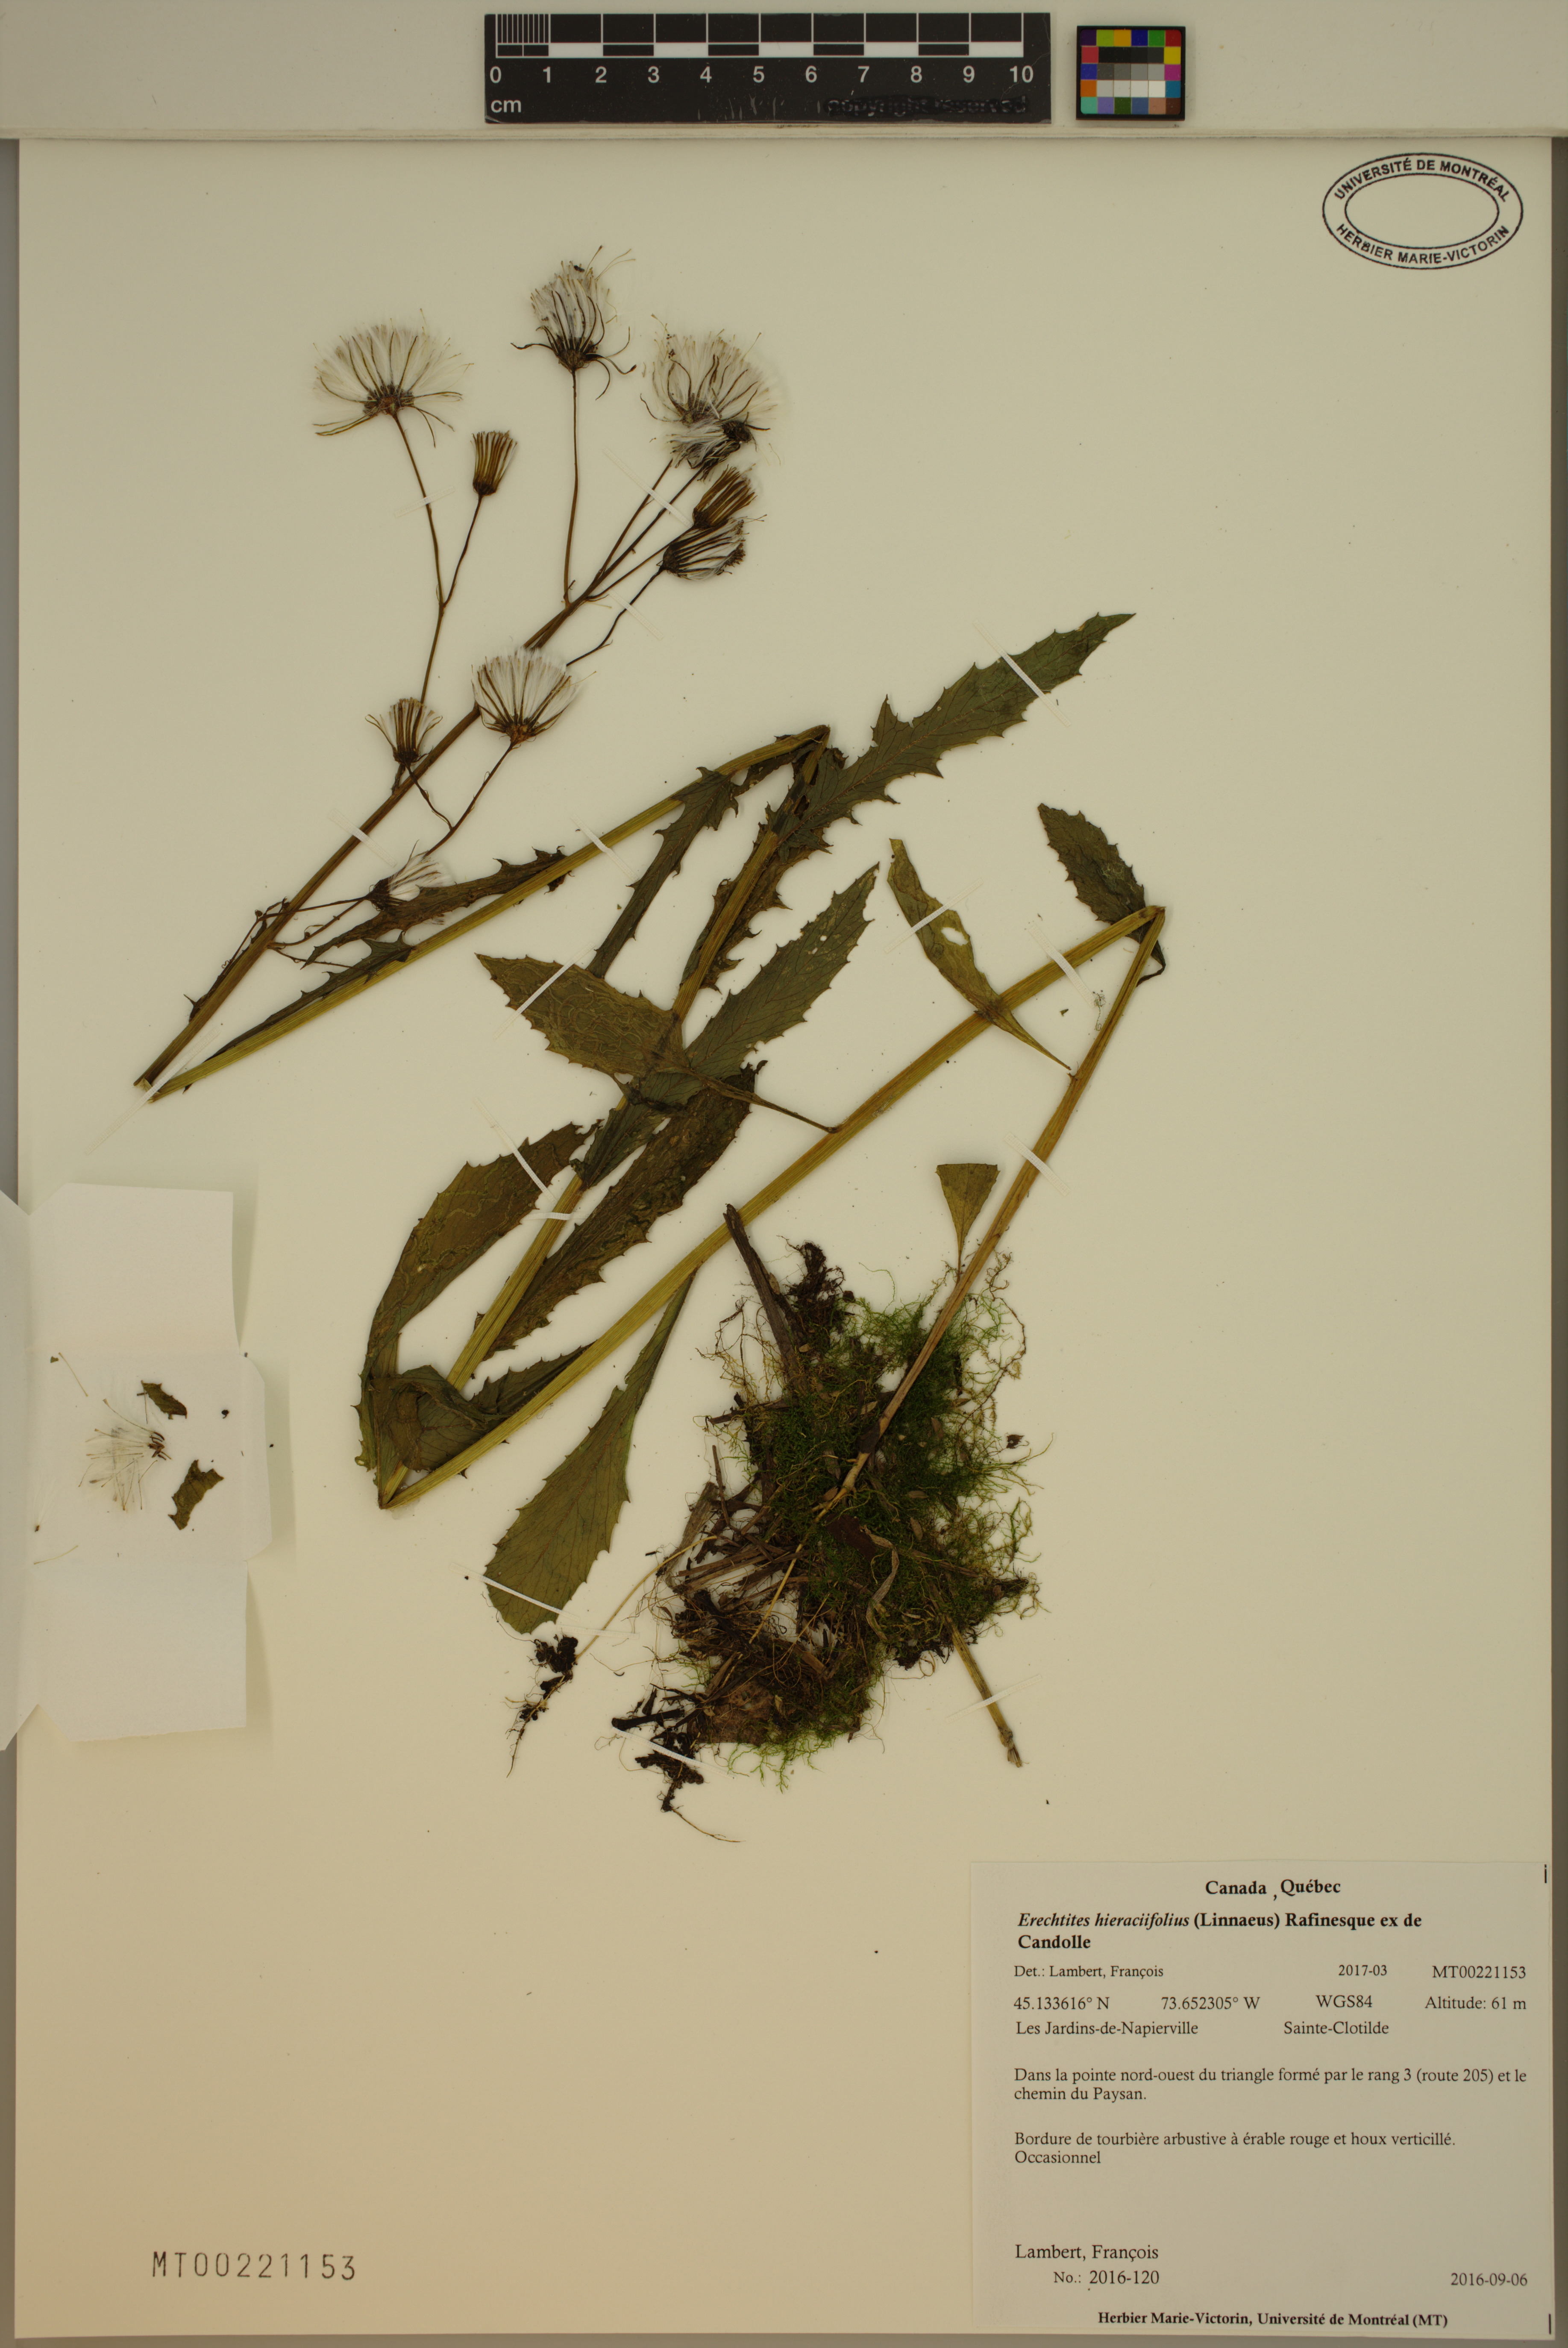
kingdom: Plantae
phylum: Tracheophyta
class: Magnoliopsida
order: Asterales
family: Asteraceae
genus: Erechtites
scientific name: Erechtites hieraciifolius
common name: American burnweed
